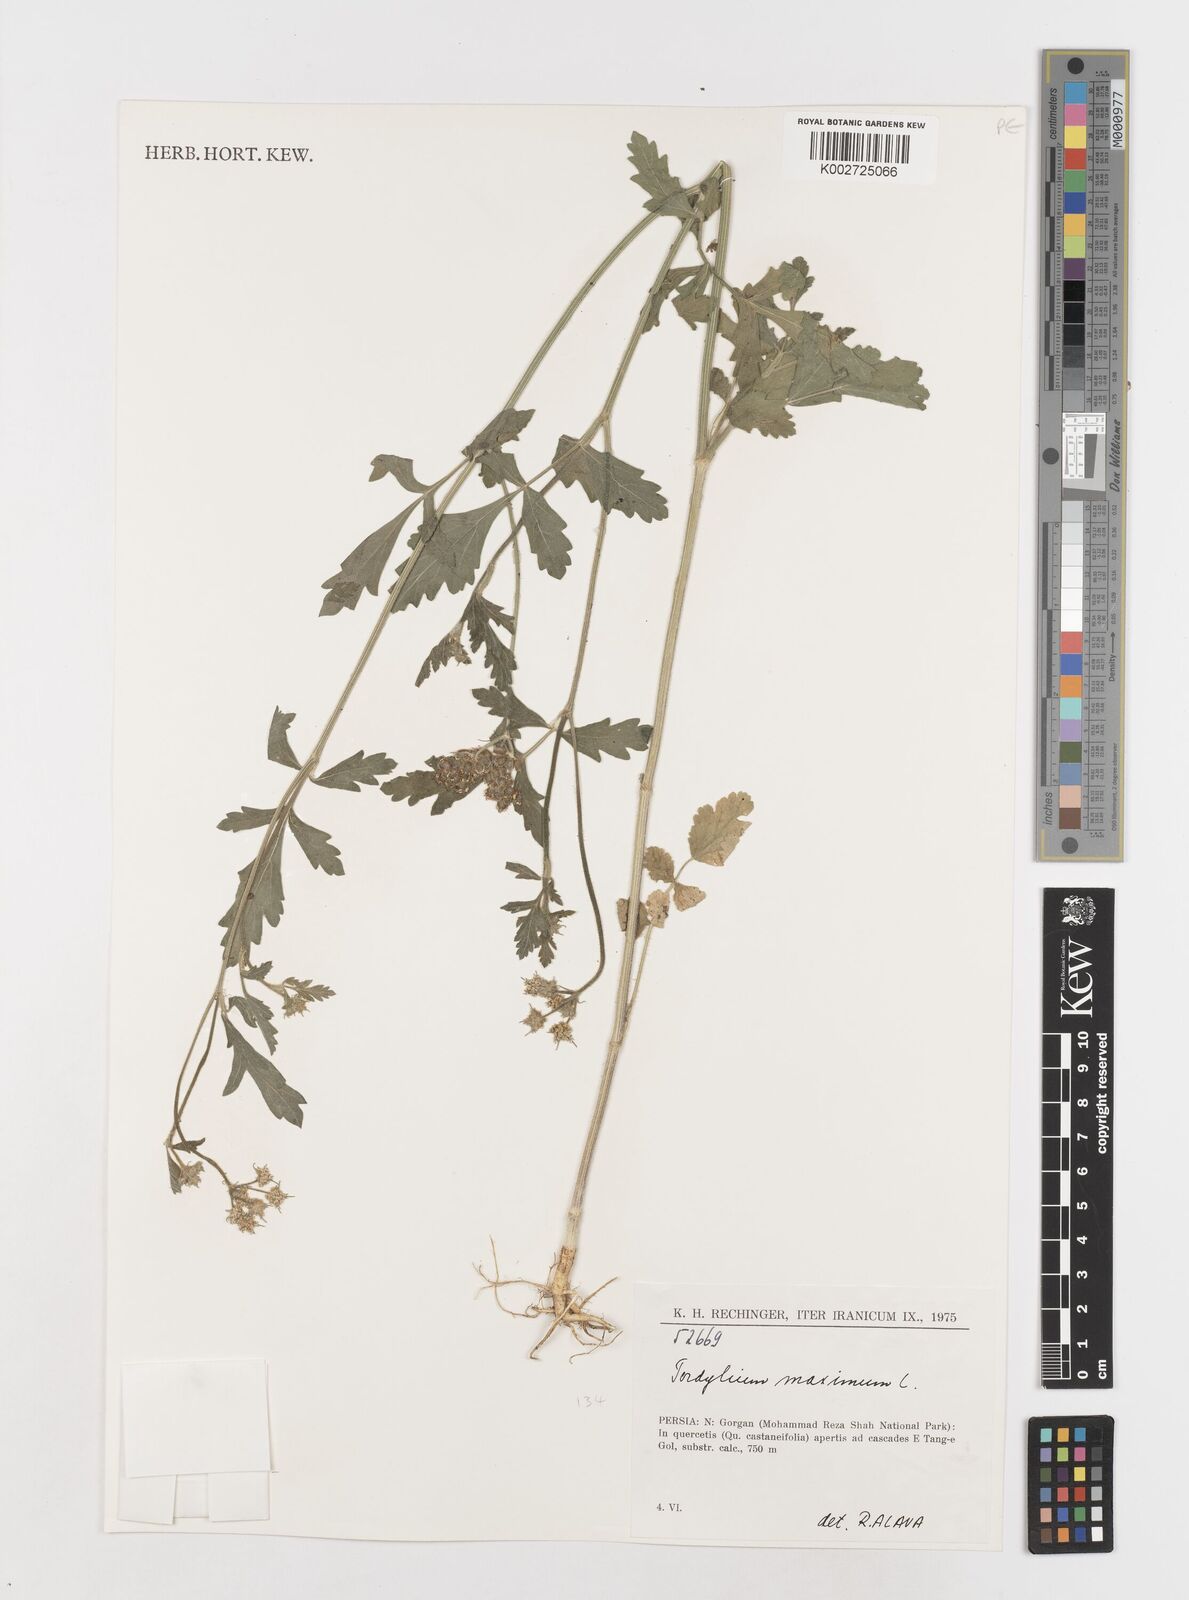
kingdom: Plantae
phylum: Tracheophyta
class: Magnoliopsida
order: Apiales
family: Apiaceae
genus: Tordylium
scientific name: Tordylium maximum
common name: Hartwort
